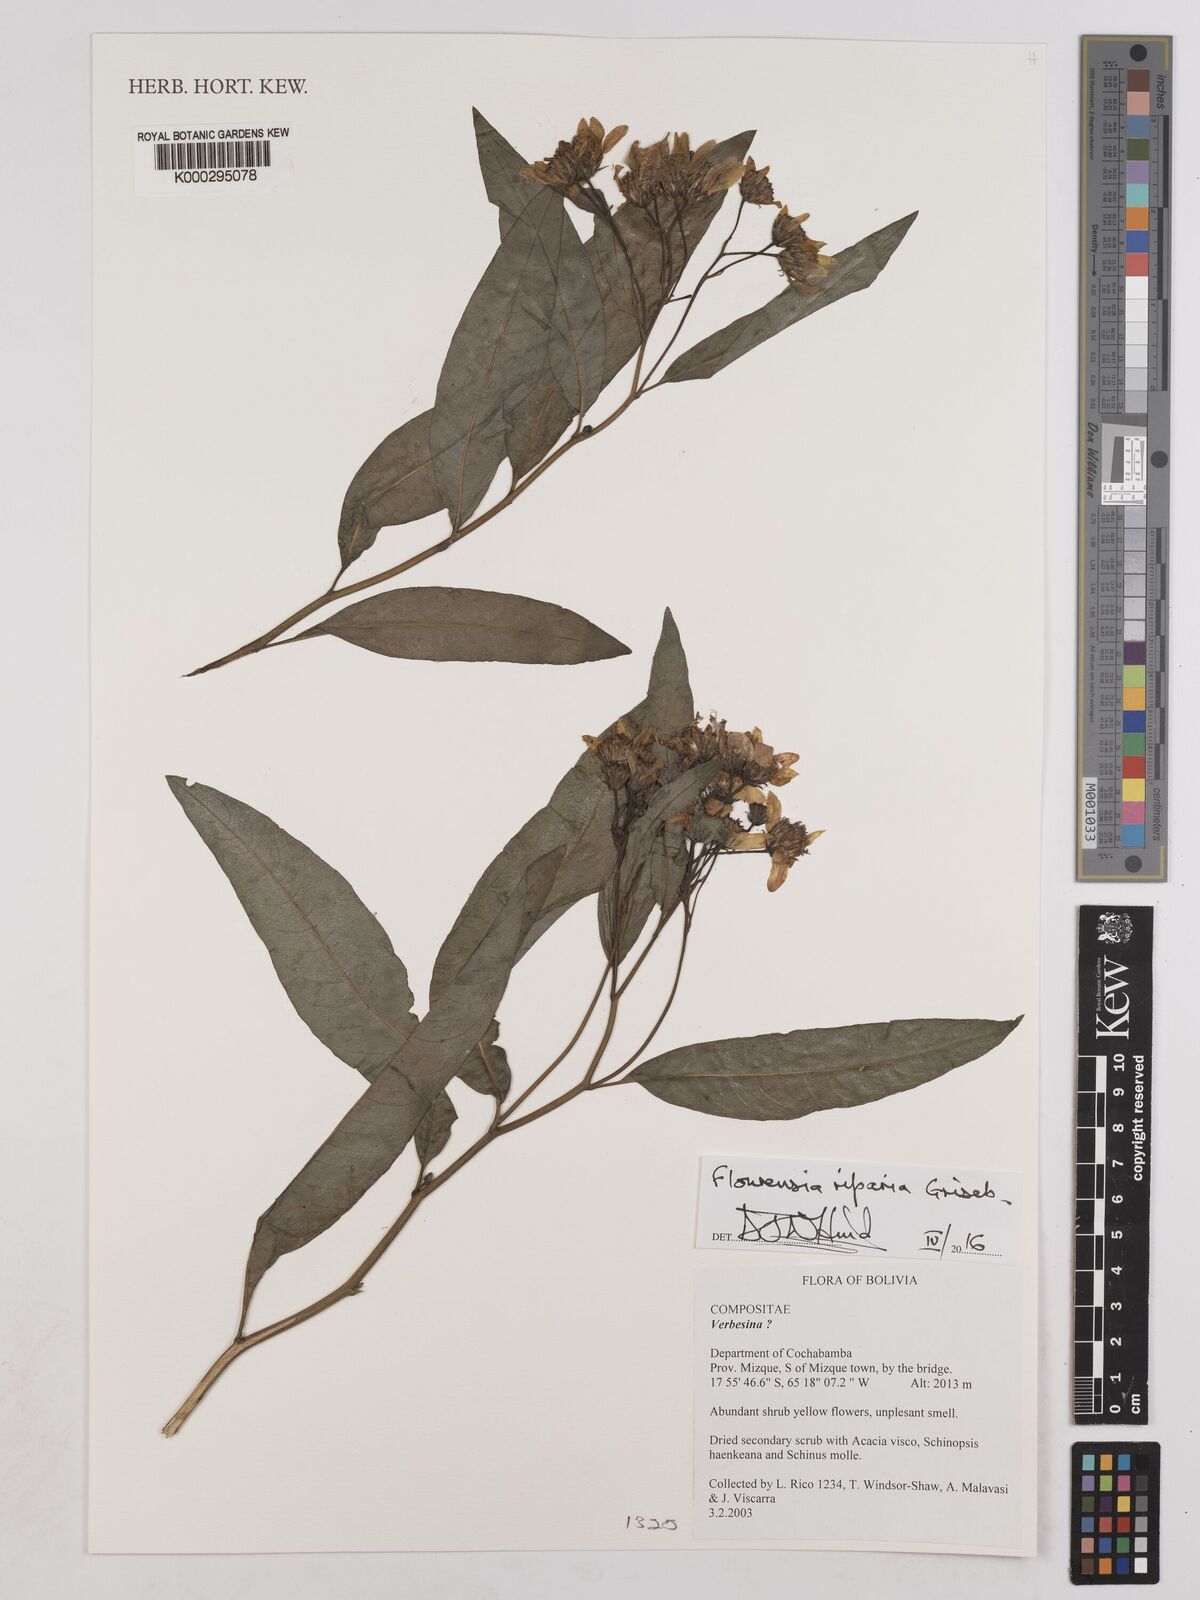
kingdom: Plantae
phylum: Tracheophyta
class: Magnoliopsida
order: Asterales
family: Asteraceae
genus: Flourensia
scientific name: Flourensia riparia
